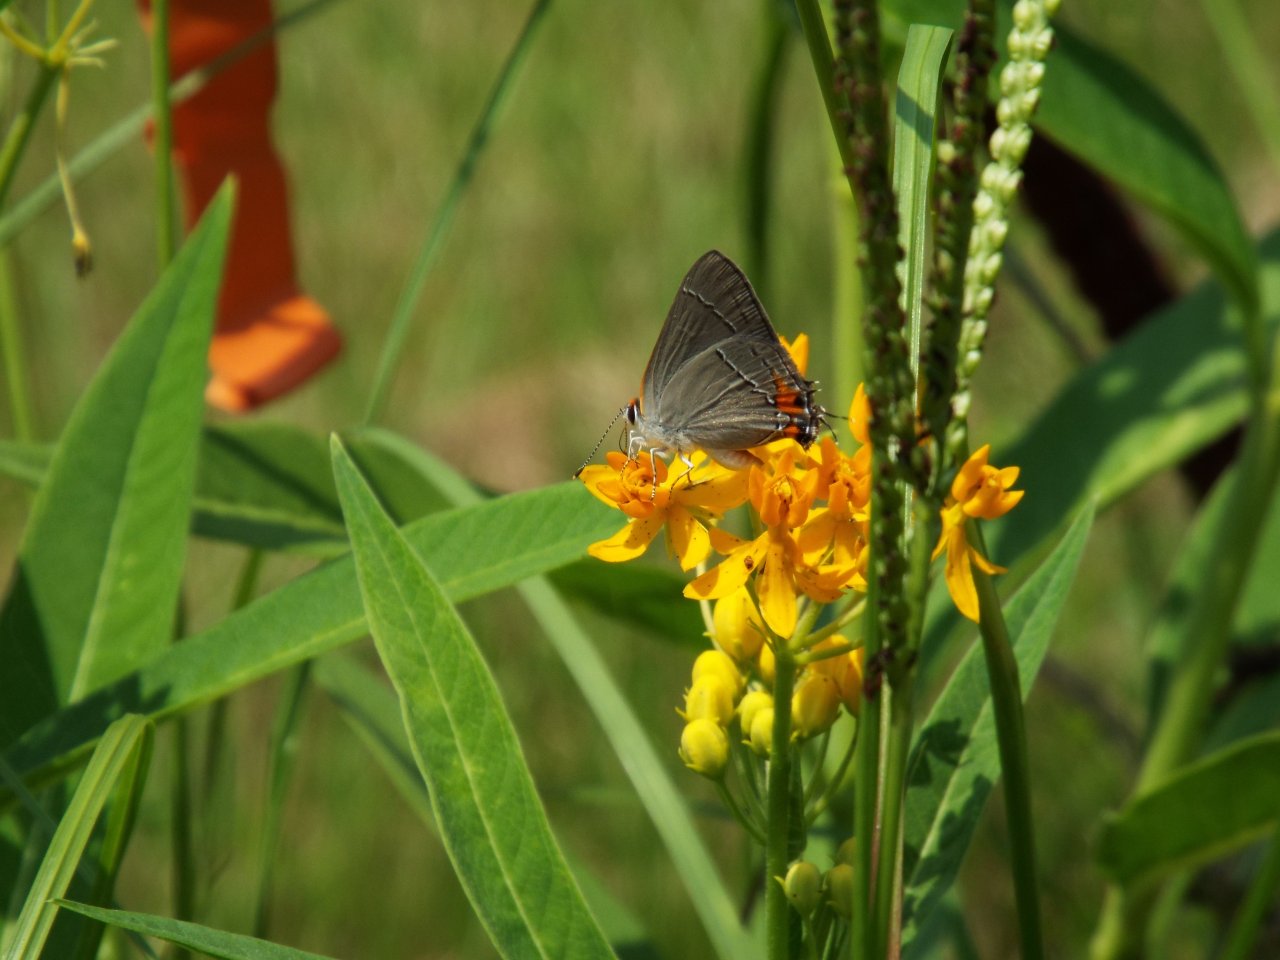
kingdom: Animalia
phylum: Arthropoda
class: Insecta
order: Lepidoptera
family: Lycaenidae
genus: Strymon
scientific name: Strymon melinus
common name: Gray Hairstreak
